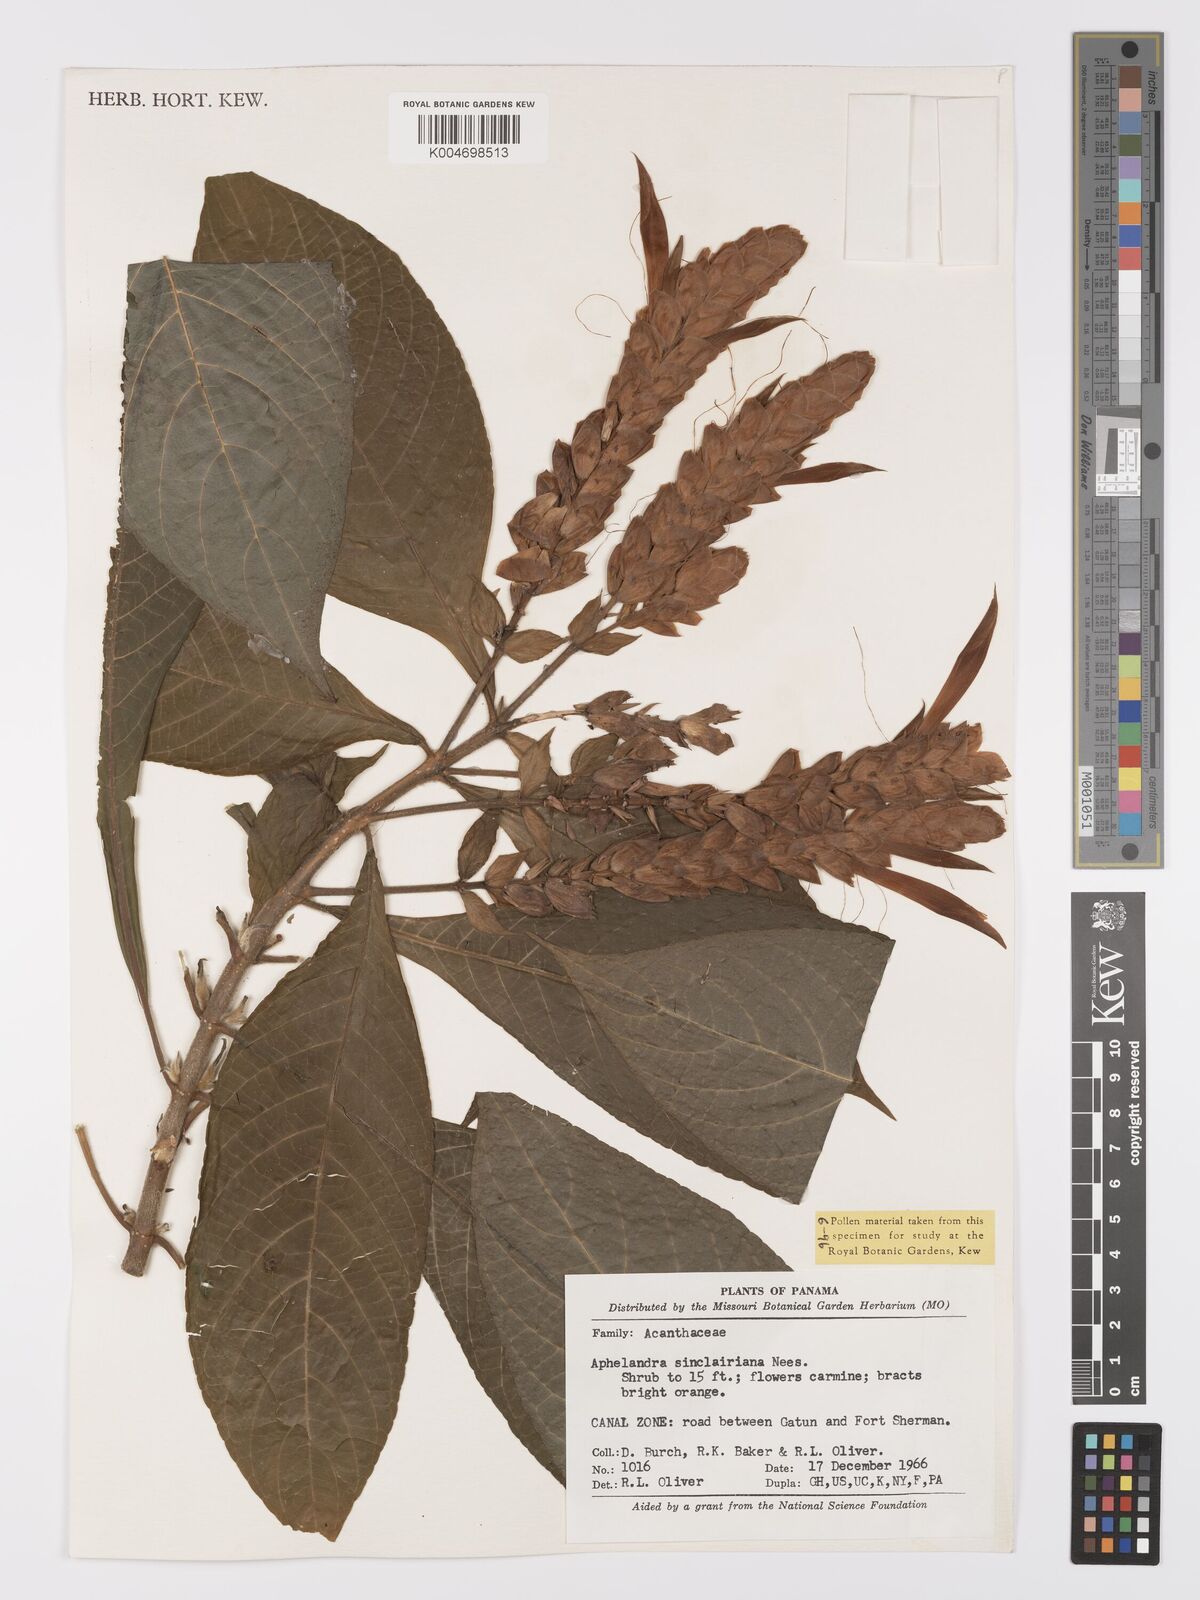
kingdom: Plantae
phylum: Tracheophyta
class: Magnoliopsida
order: Lamiales
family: Acanthaceae
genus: Aphelandra
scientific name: Aphelandra sinclairiana
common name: Coral aphelandra
